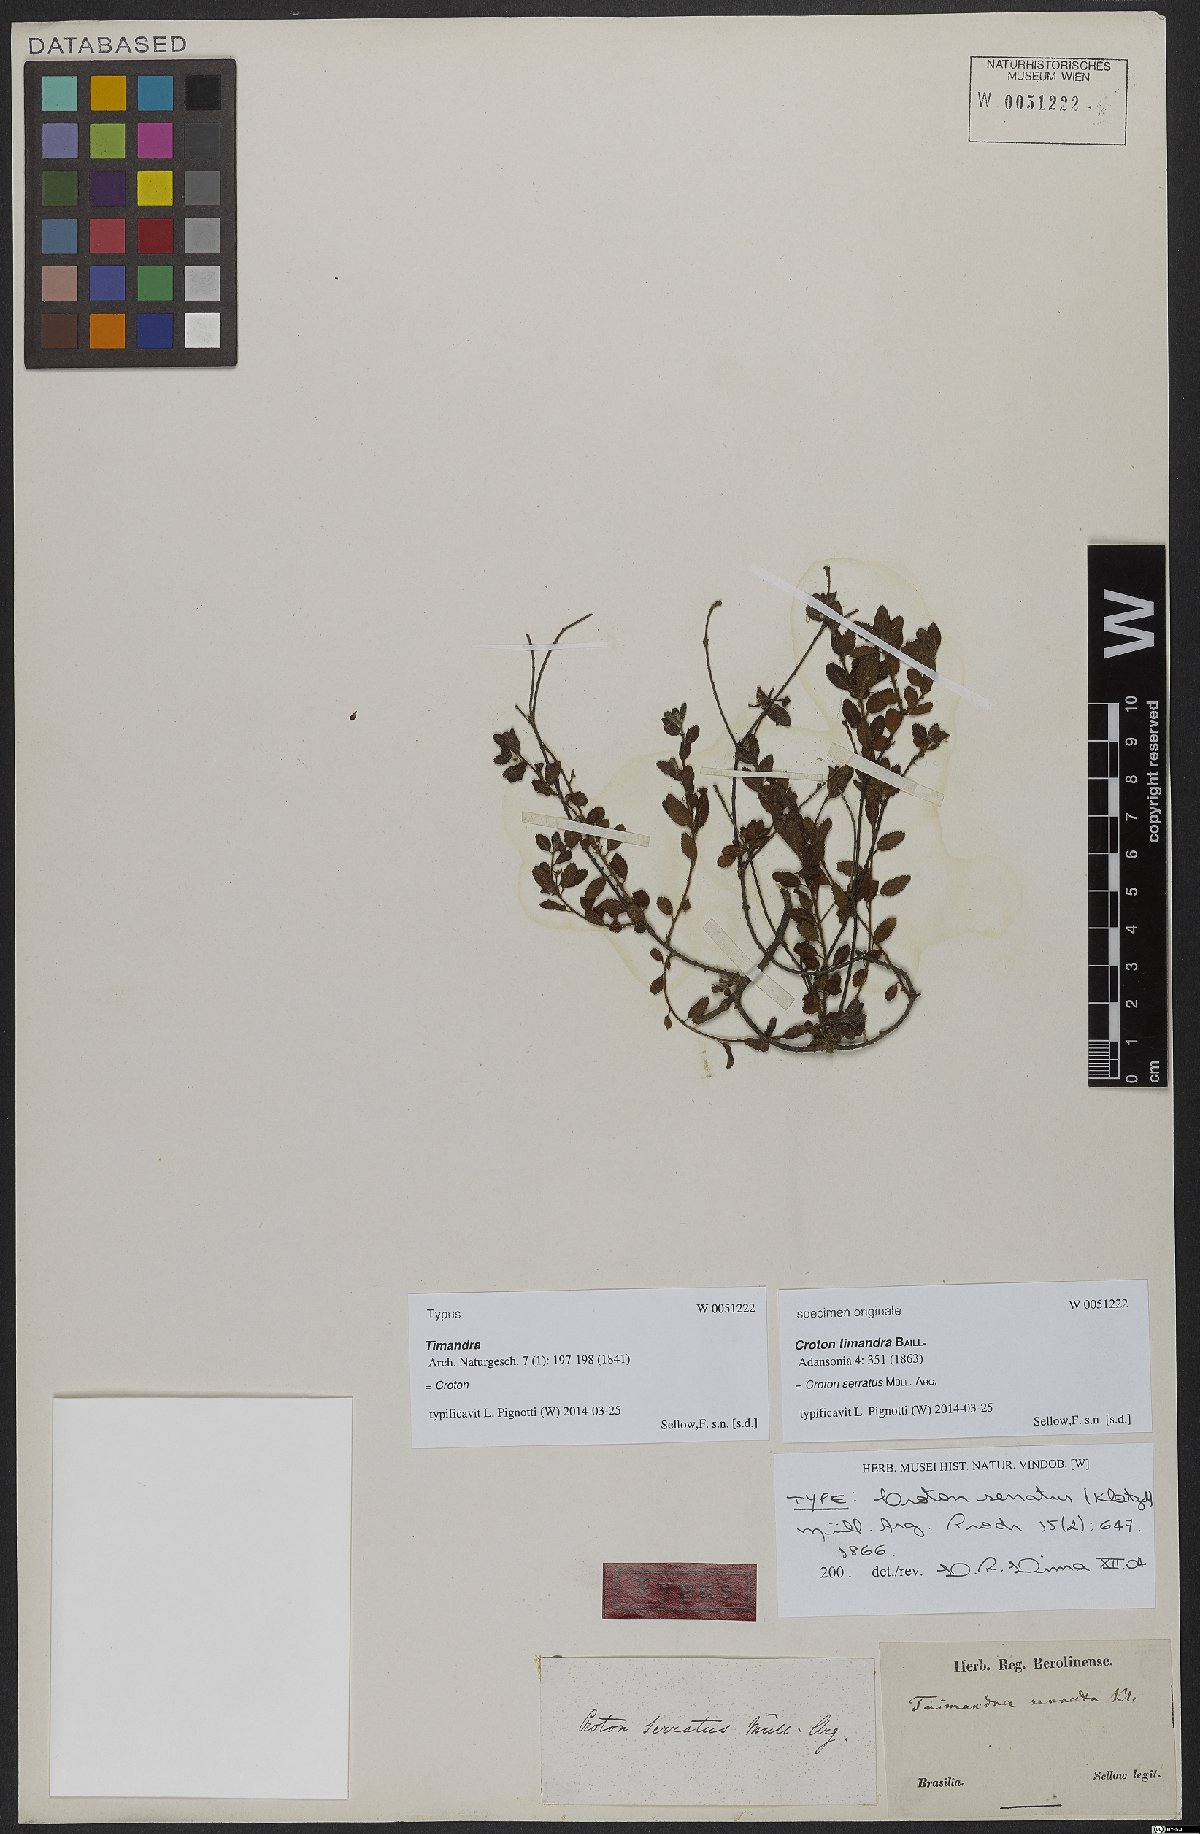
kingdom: Plantae
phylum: Tracheophyta
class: Magnoliopsida
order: Malpighiales
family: Euphorbiaceae
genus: Croton
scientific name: Croton serratus
